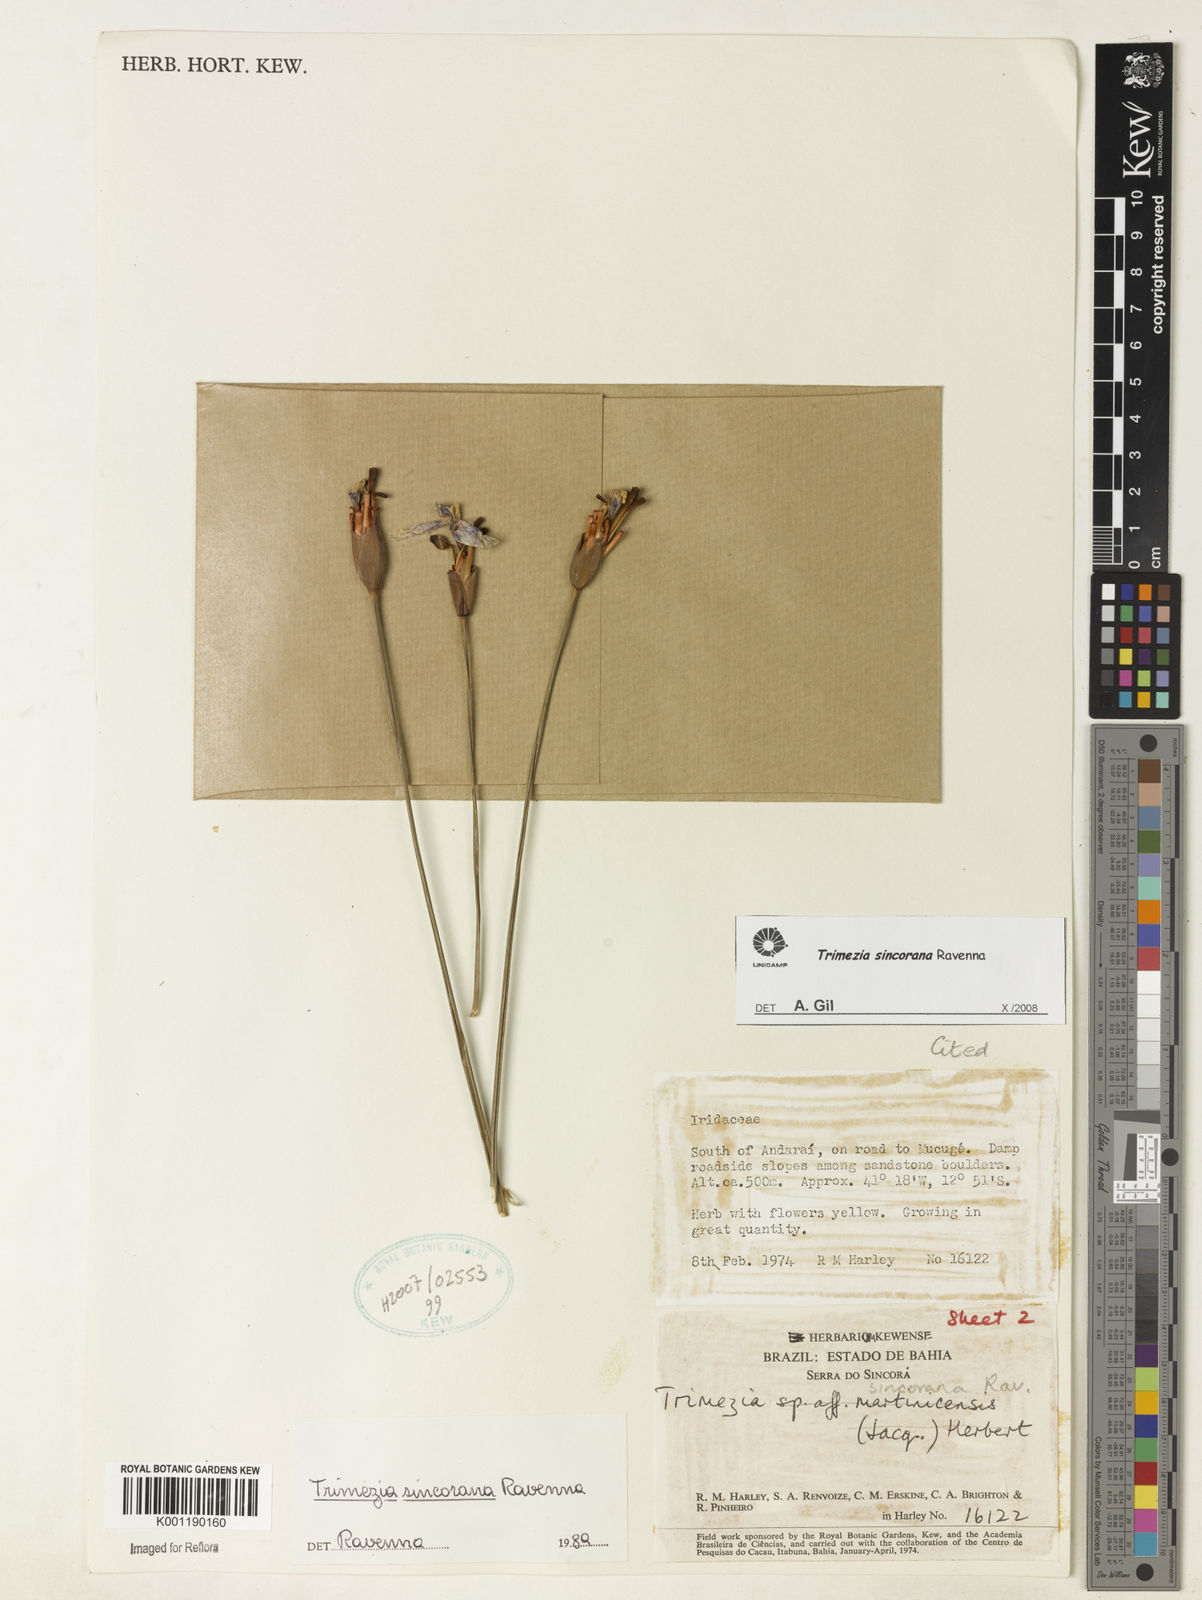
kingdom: Plantae
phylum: Tracheophyta
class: Liliopsida
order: Asparagales
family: Iridaceae
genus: Trimezia
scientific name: Trimezia spathata
